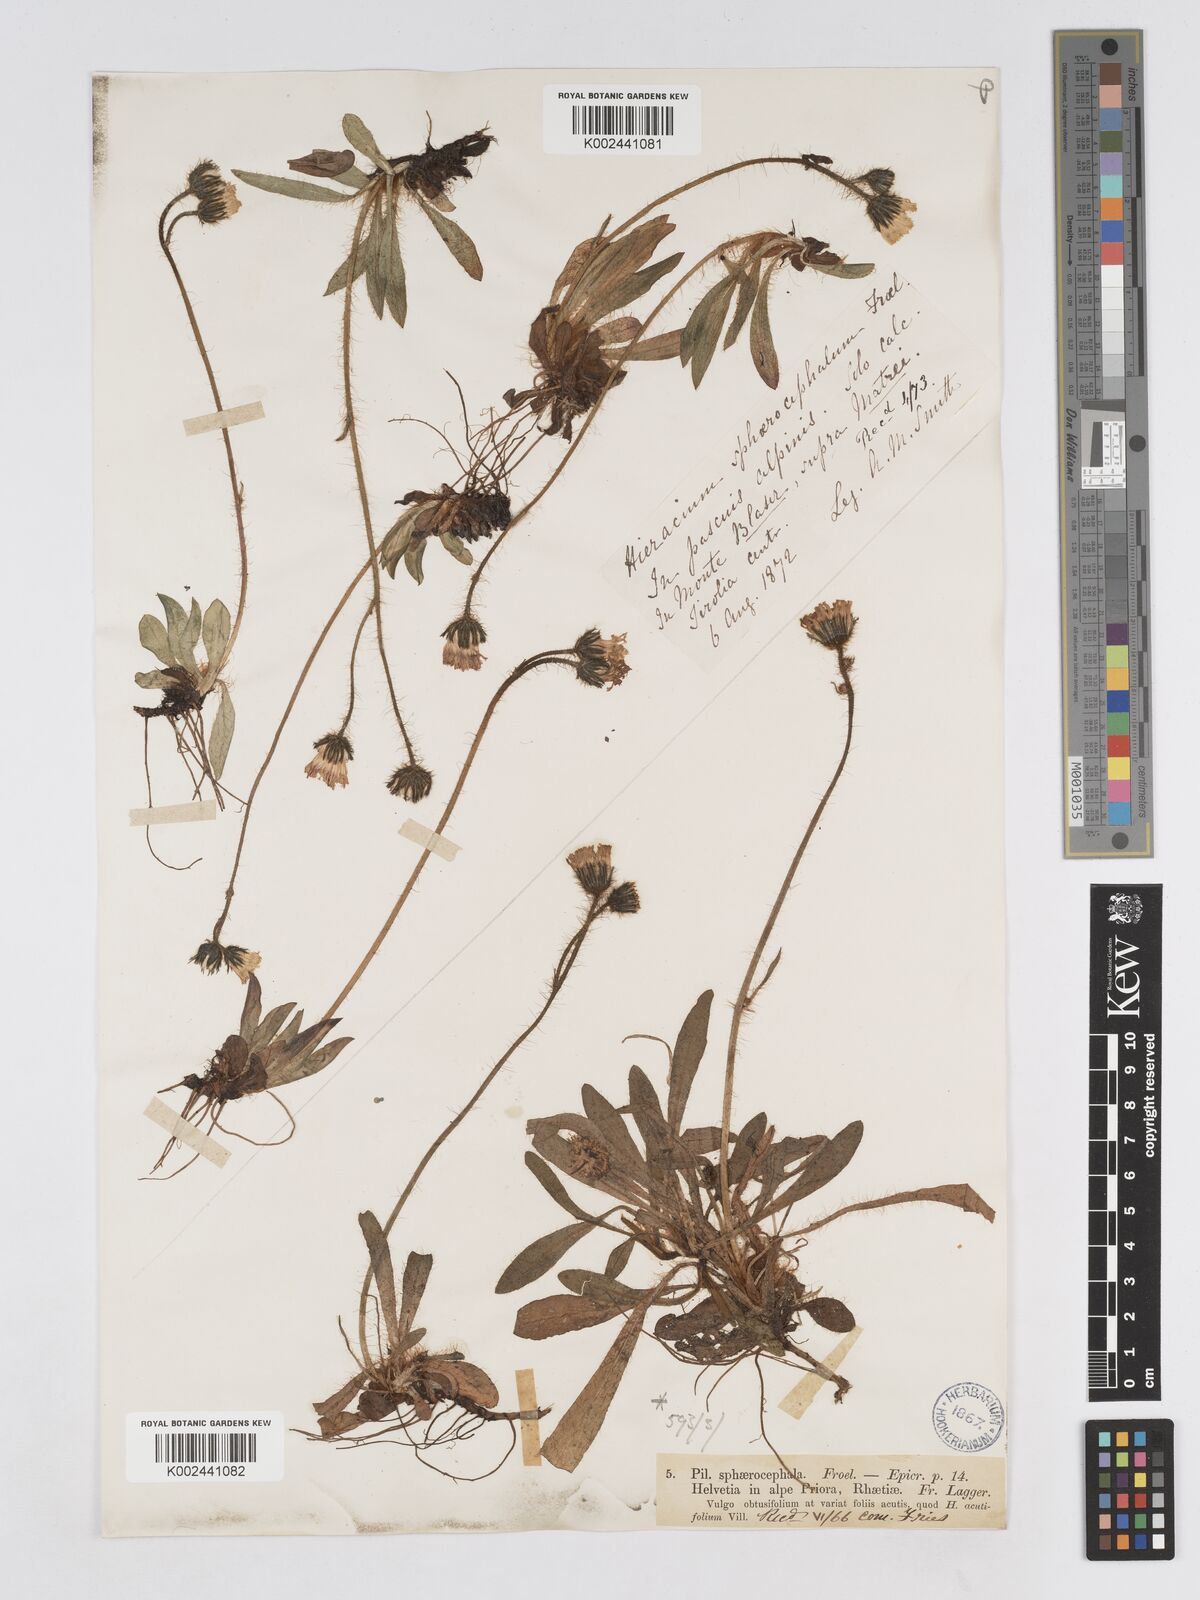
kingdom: Plantae
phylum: Tracheophyta
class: Magnoliopsida
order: Asterales
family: Asteraceae
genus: Pilosella
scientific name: Pilosella sphaerocephala
